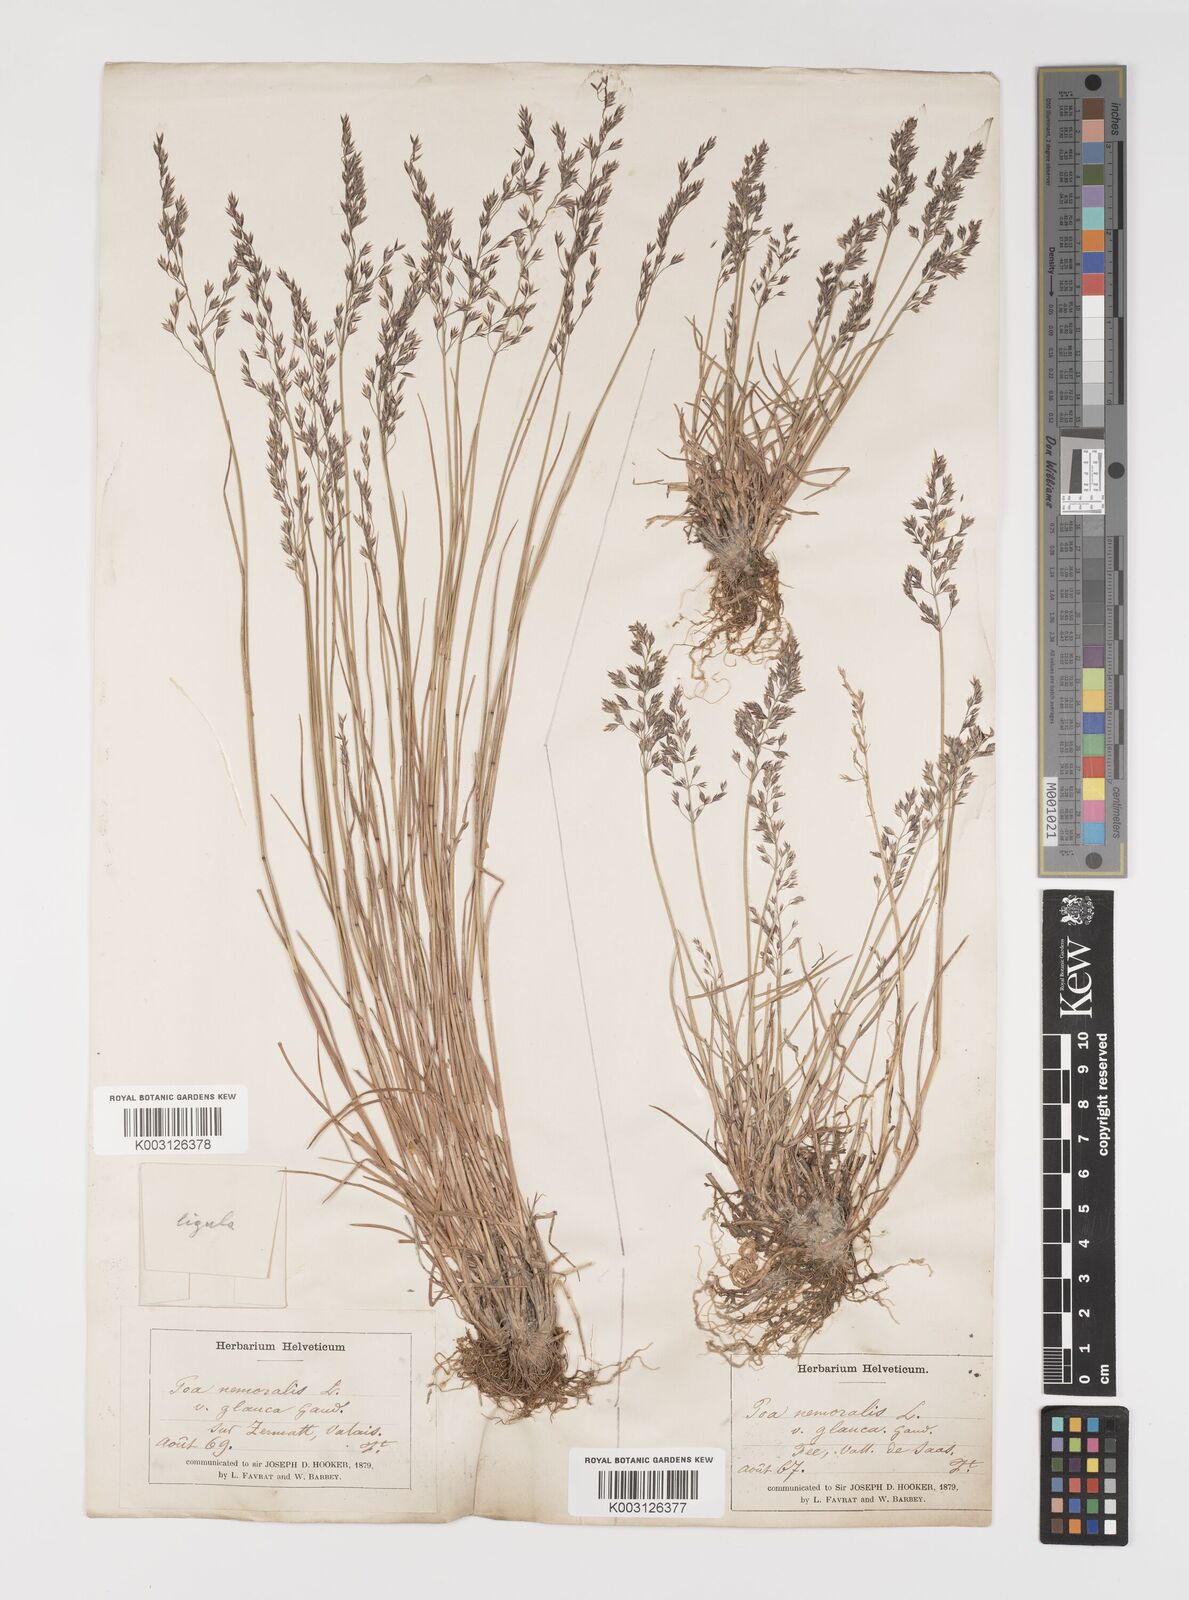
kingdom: Plantae
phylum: Tracheophyta
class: Liliopsida
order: Poales
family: Poaceae
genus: Poa
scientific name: Poa glauca
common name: Glaucous bluegrass
